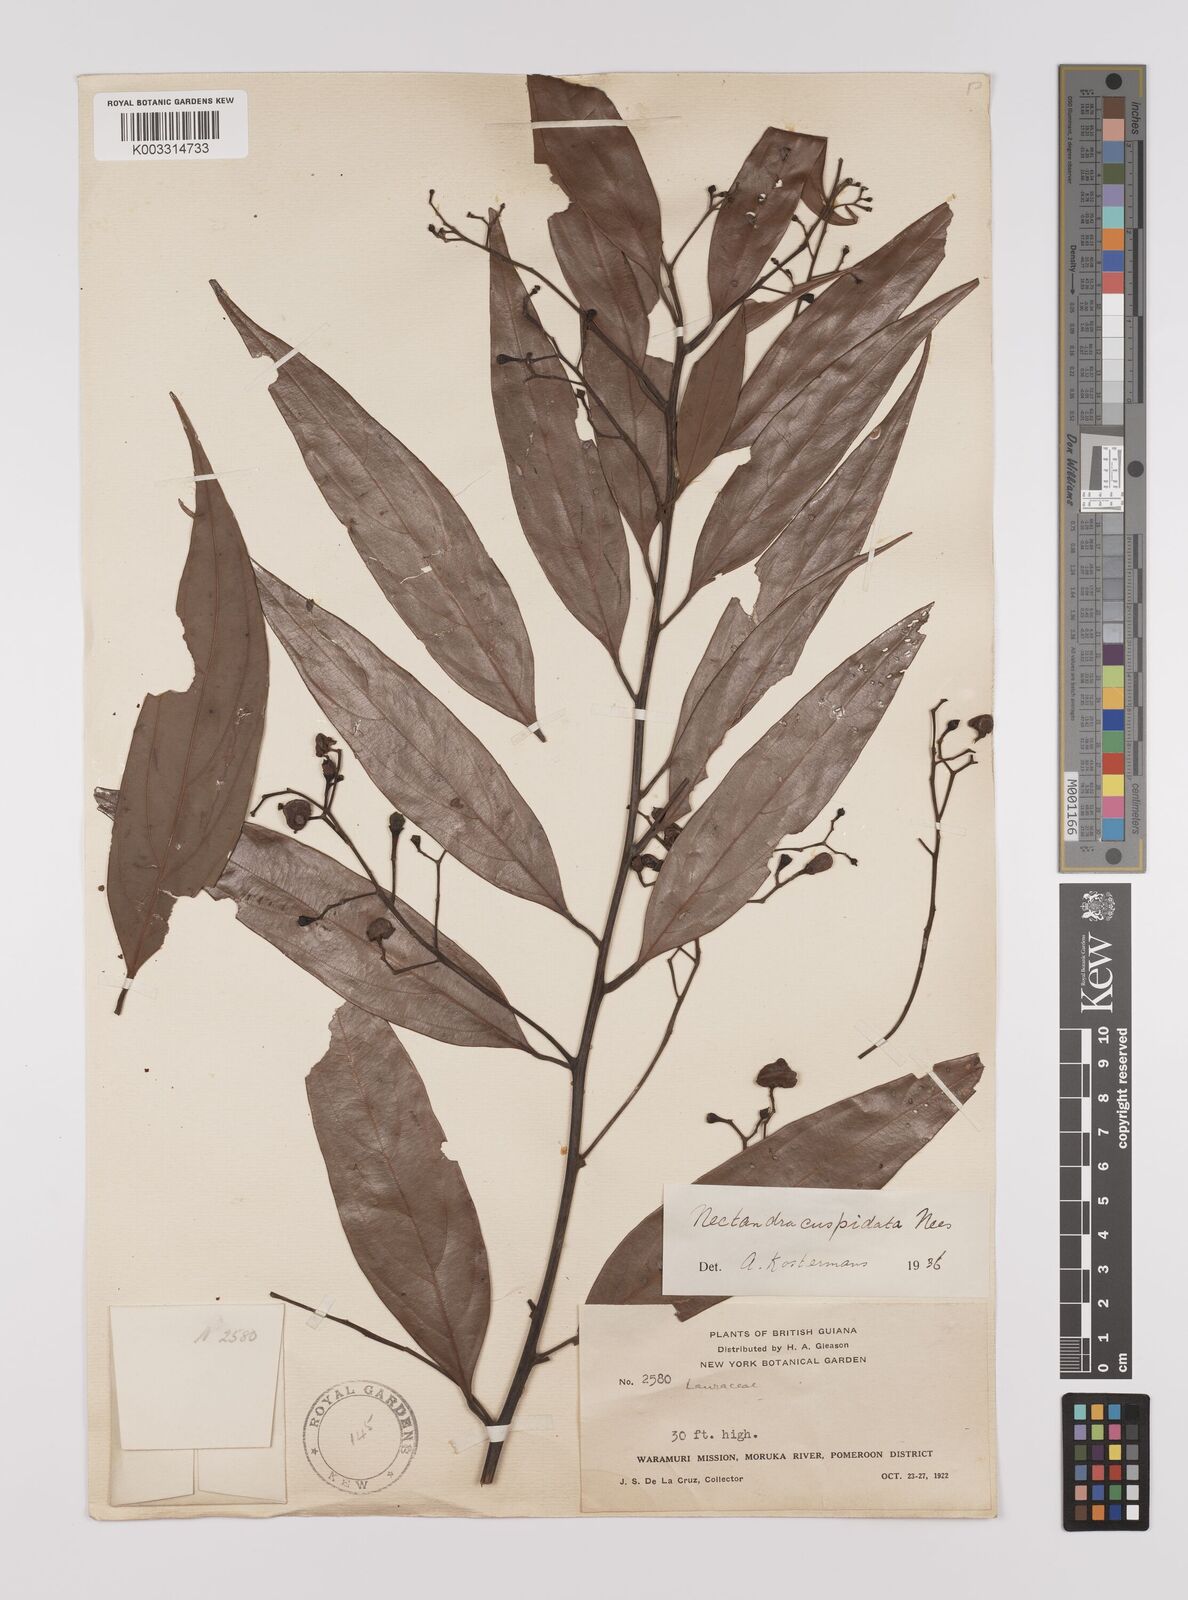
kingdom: Plantae
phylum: Tracheophyta
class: Magnoliopsida
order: Laurales
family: Lauraceae
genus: Nectandra
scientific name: Nectandra cuspidata
